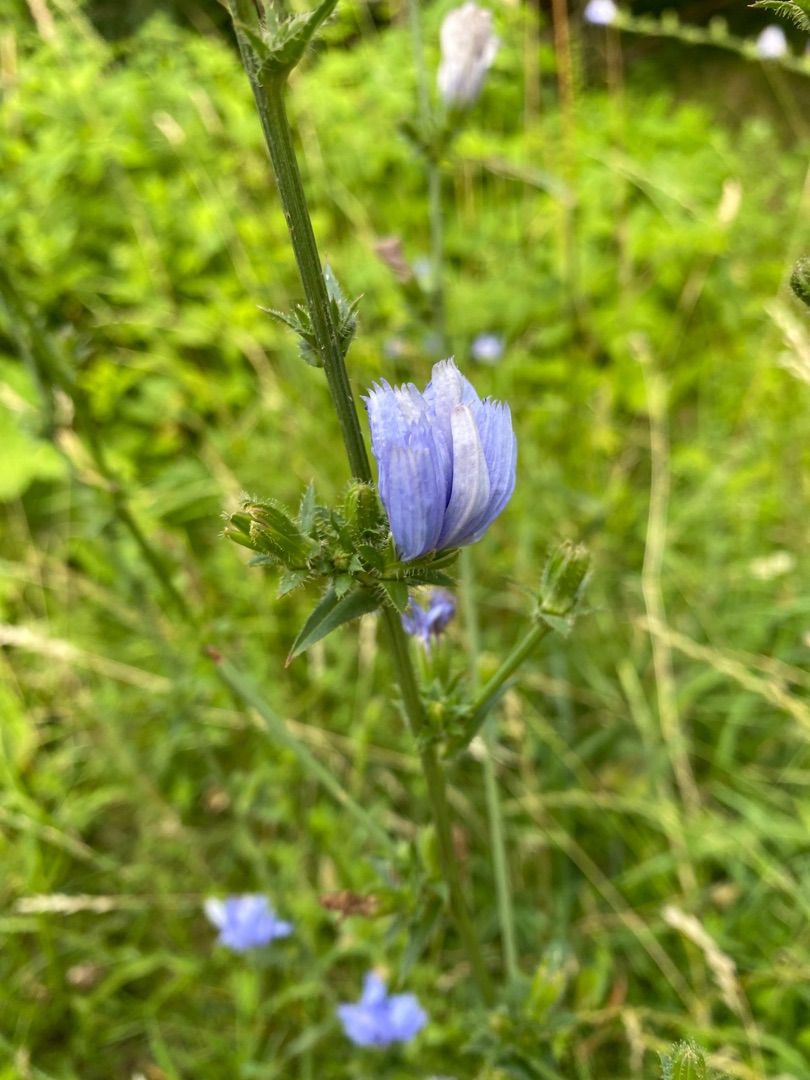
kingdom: Plantae
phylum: Tracheophyta
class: Magnoliopsida
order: Asterales
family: Asteraceae
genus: Cichorium
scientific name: Cichorium intybus
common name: Cikorie
